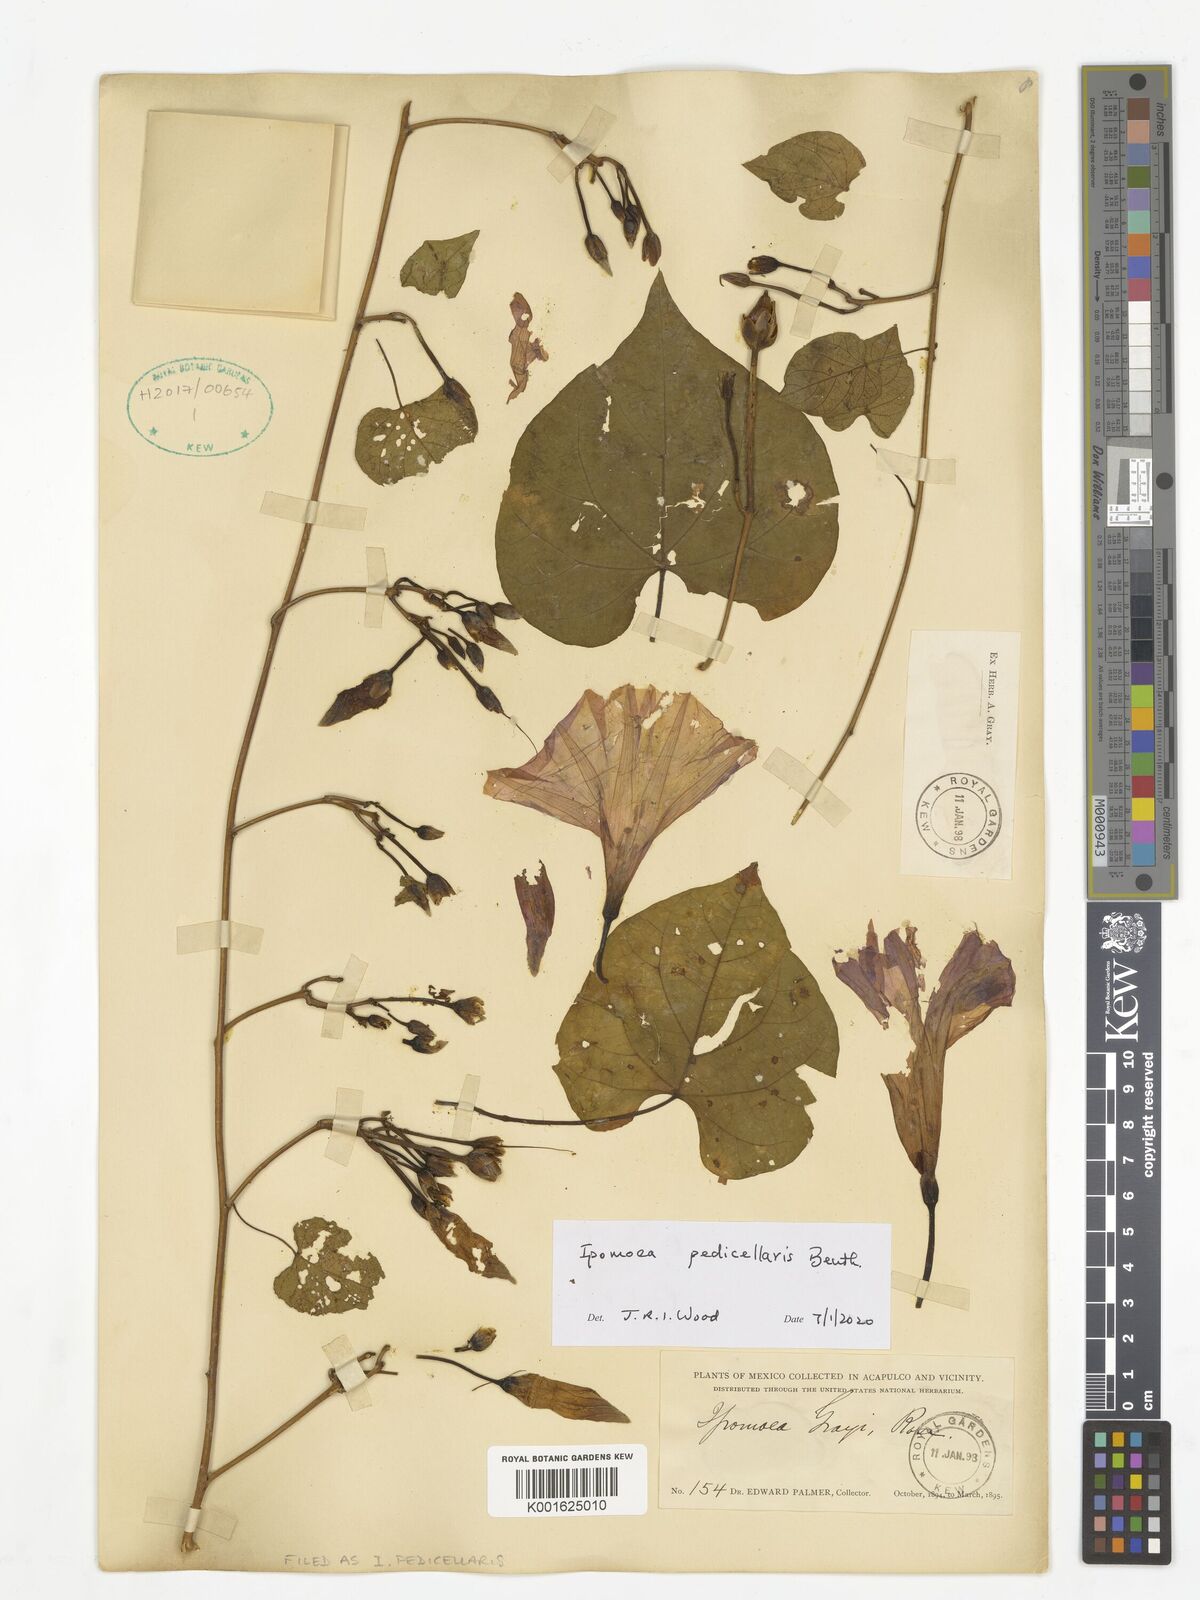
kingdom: Plantae
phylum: Tracheophyta
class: Magnoliopsida
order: Solanales
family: Convolvulaceae
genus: Ipomoea
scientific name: Ipomoea pedicellaris
